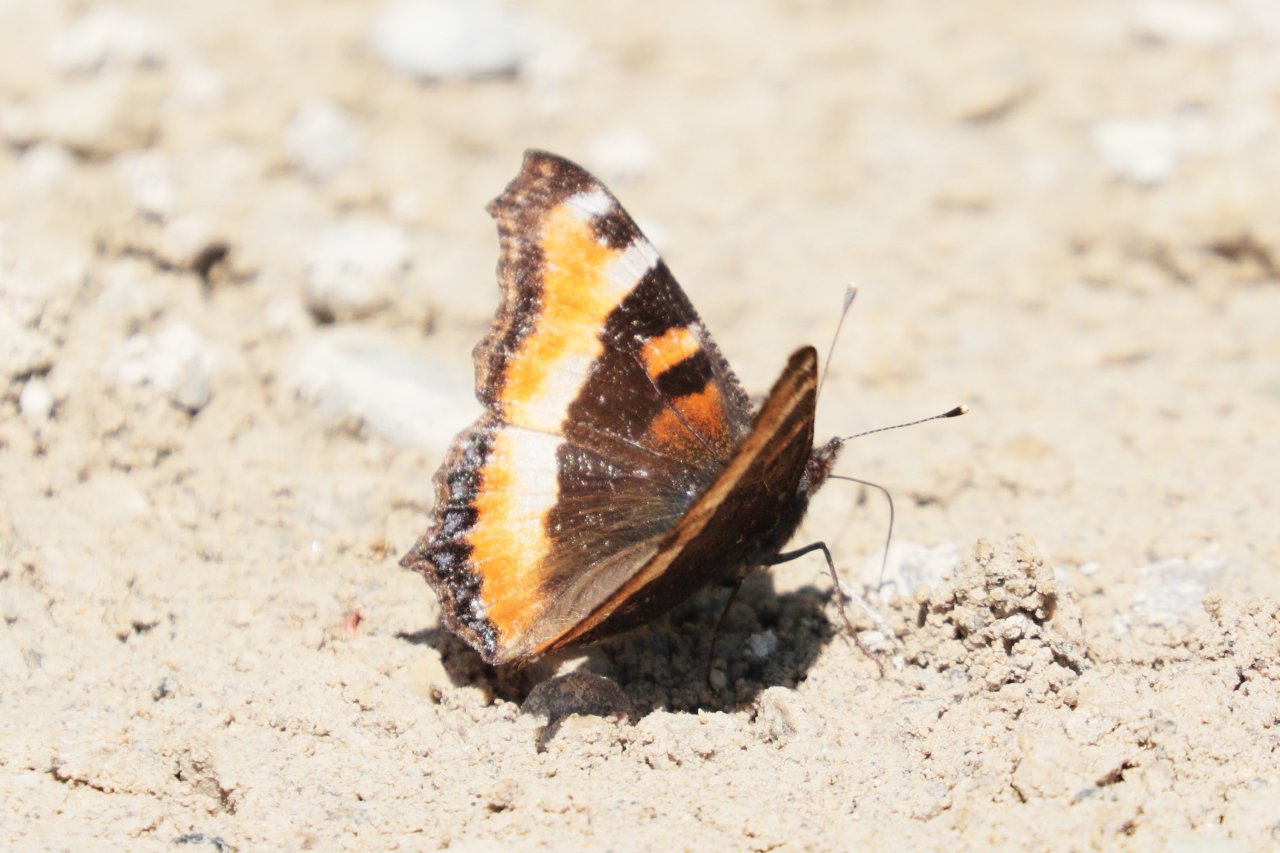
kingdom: Animalia
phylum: Arthropoda
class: Insecta
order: Lepidoptera
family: Nymphalidae
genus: Aglais
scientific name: Aglais milberti
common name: Milbert's Tortoiseshell
